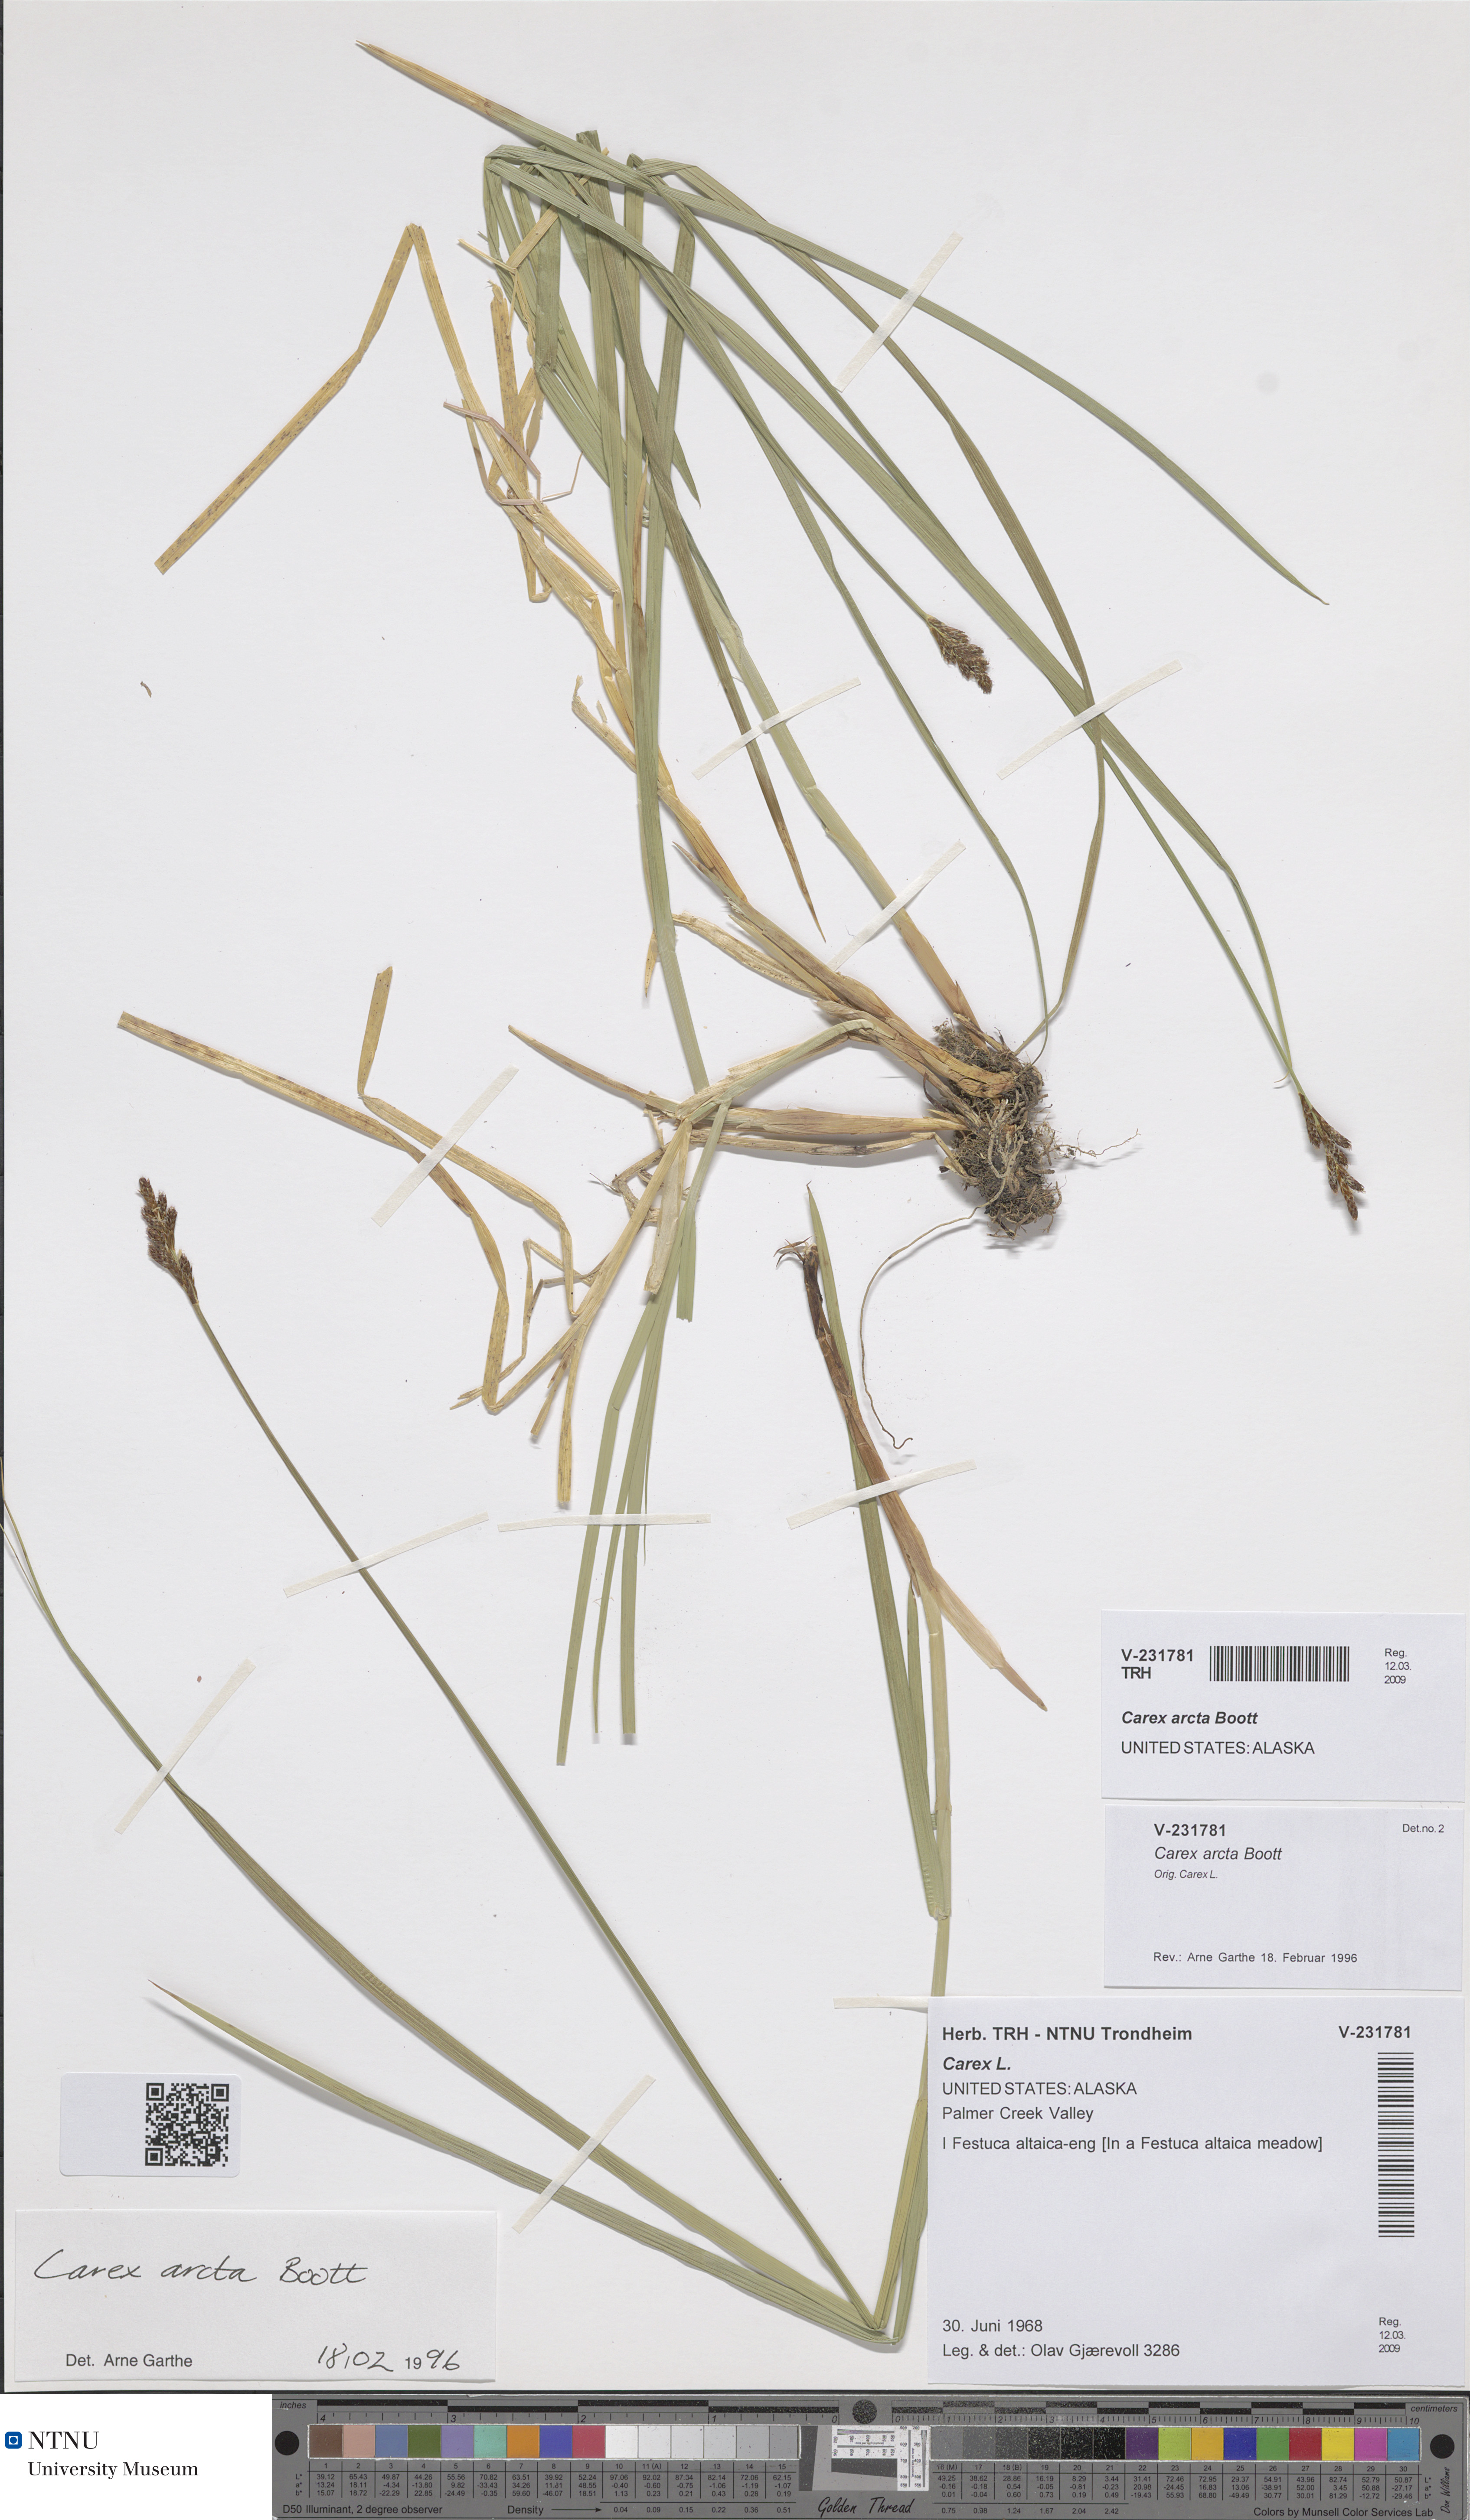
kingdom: Plantae
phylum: Tracheophyta
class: Liliopsida
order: Poales
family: Cyperaceae
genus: Carex
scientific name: Carex arcta
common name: Bear sedge
